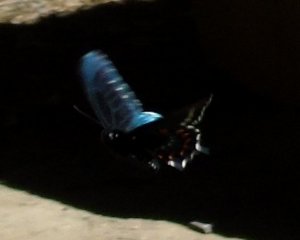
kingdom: Animalia
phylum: Arthropoda
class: Insecta
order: Lepidoptera
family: Papilionidae
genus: Battus
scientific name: Battus philenor
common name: Pipevine Swallowtail
